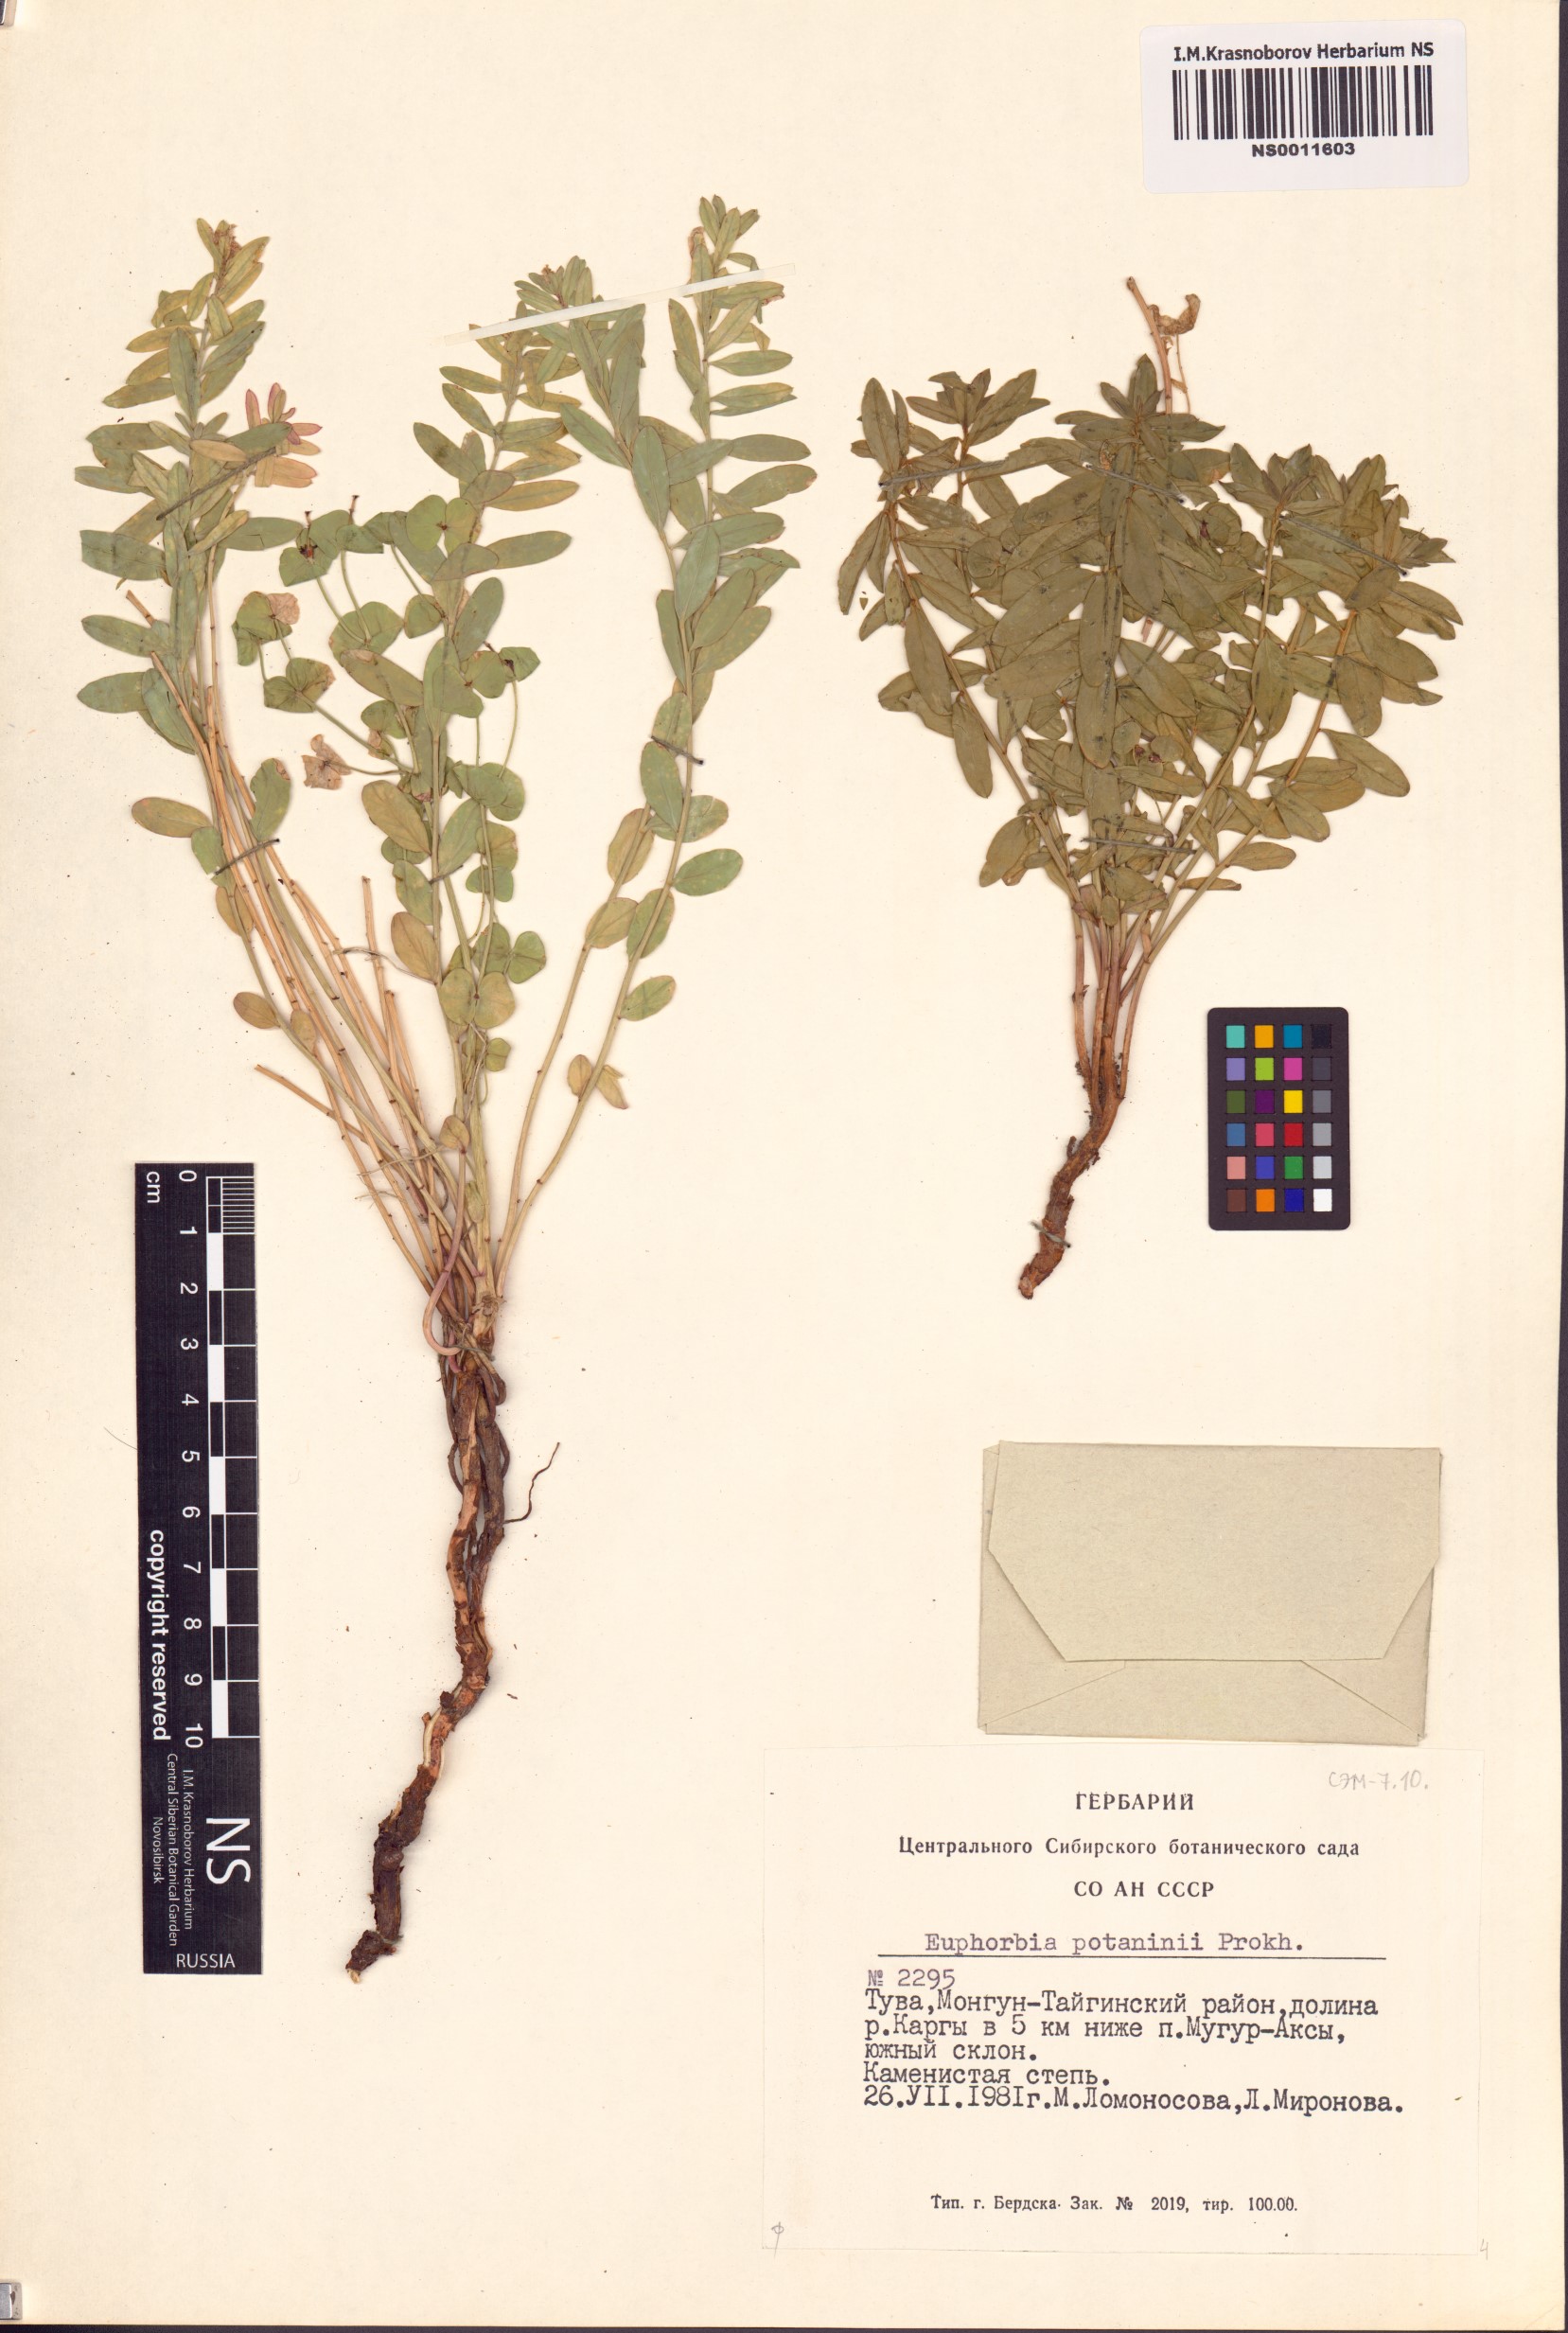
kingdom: Plantae
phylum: Tracheophyta
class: Magnoliopsida
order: Malpighiales
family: Euphorbiaceae
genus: Euphorbia
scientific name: Euphorbia potaninii
